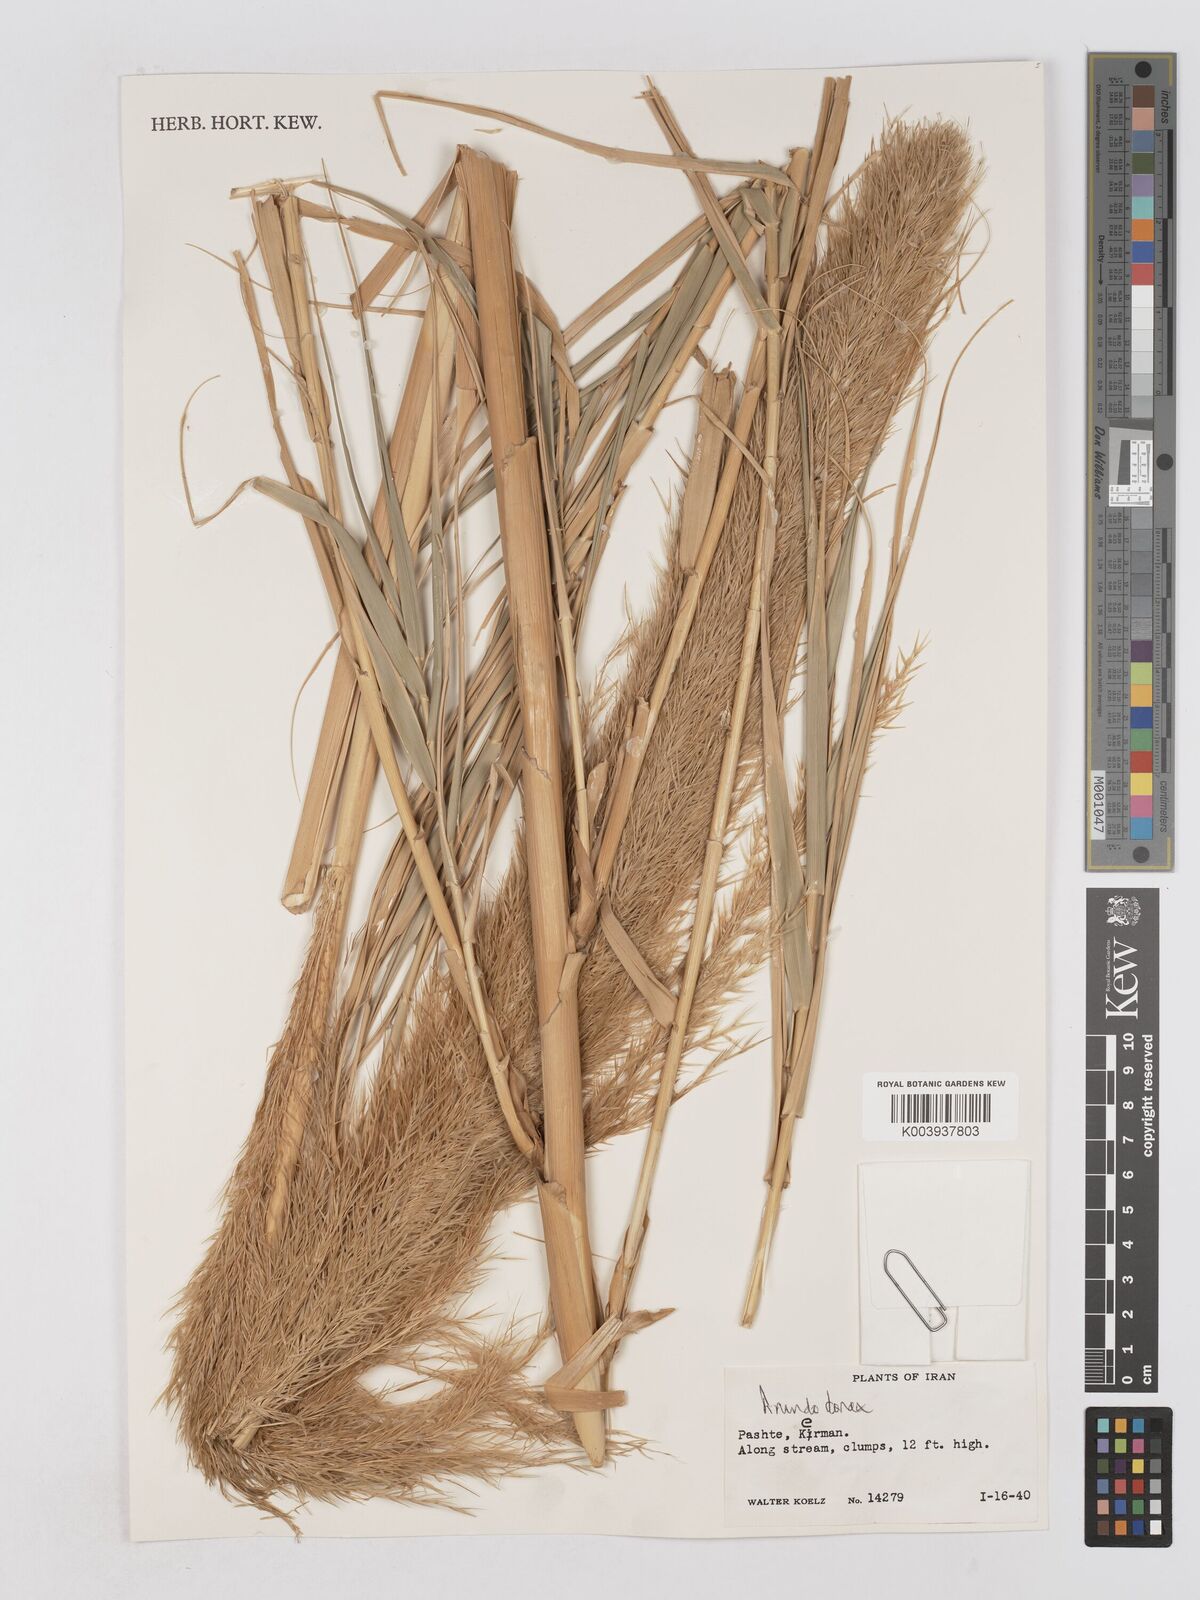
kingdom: Plantae
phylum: Tracheophyta
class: Liliopsida
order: Poales
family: Poaceae
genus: Arundo
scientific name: Arundo donax
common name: Giant reed
